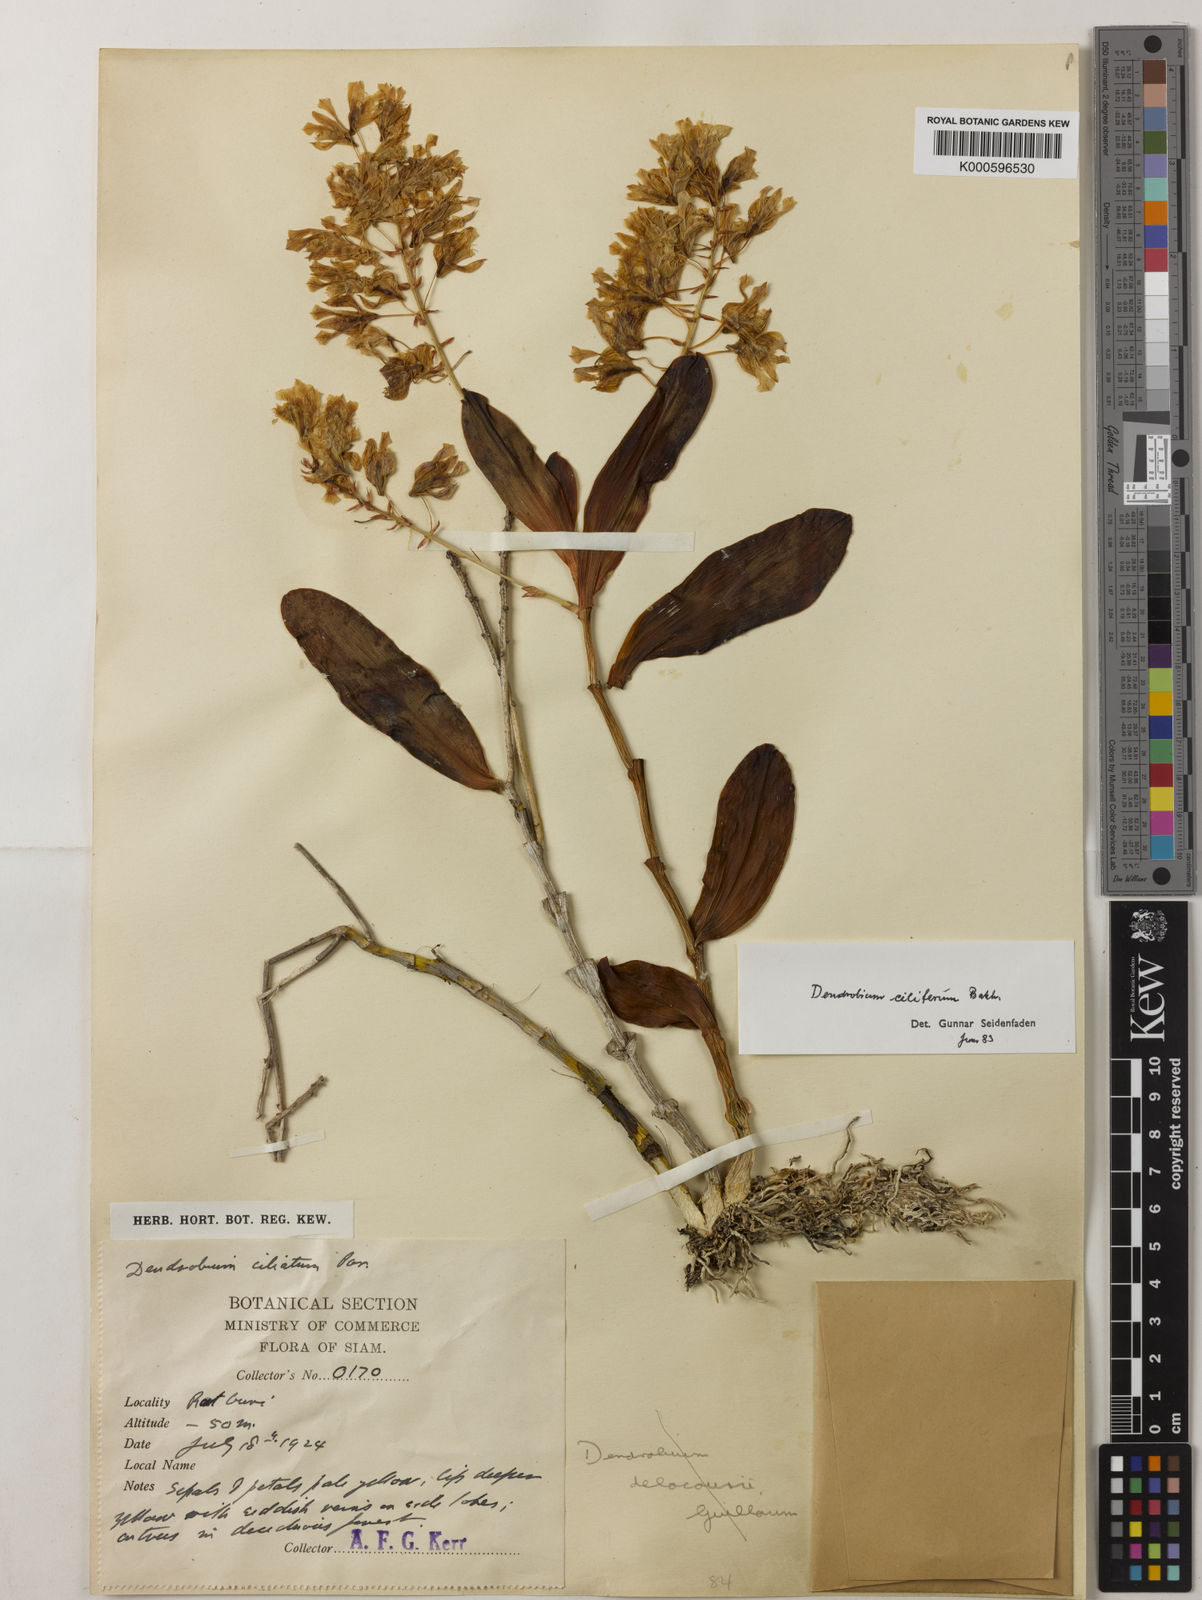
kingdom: Plantae
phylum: Tracheophyta
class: Liliopsida
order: Asparagales
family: Orchidaceae
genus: Dendrobium
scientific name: Dendrobium venustum
